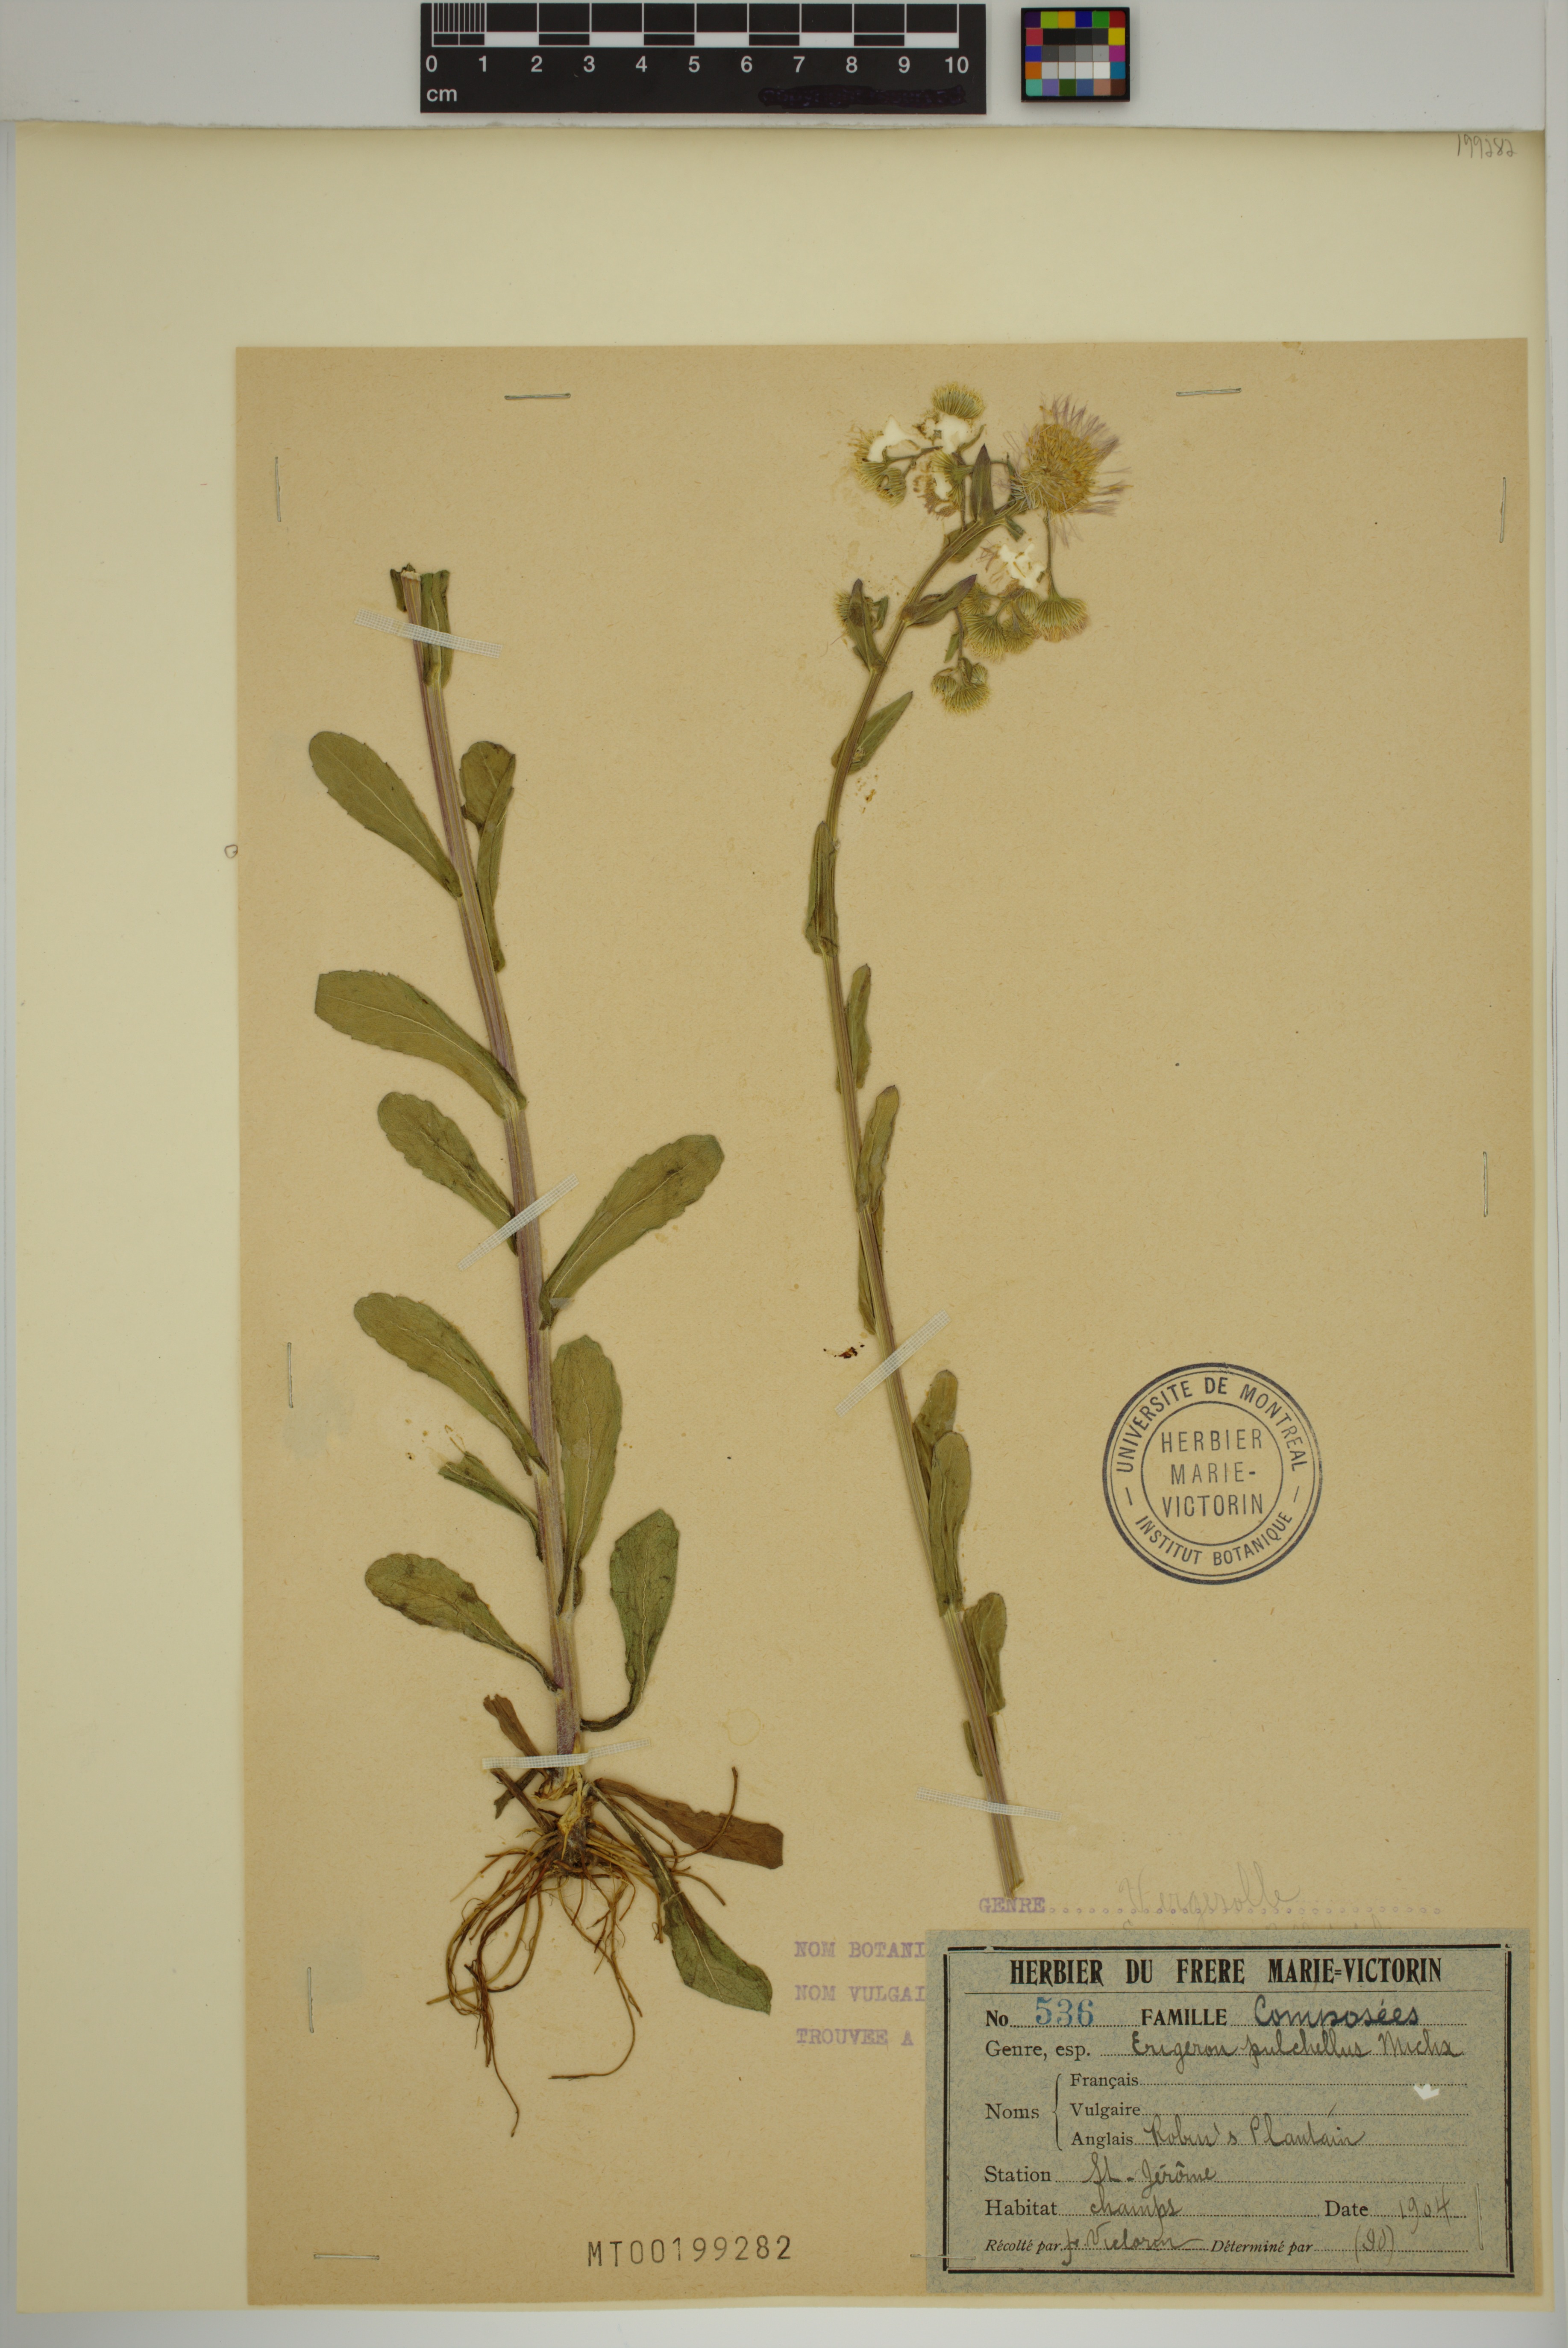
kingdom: Plantae
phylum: Tracheophyta
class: Magnoliopsida
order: Asterales
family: Asteraceae
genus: Erigeron
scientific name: Erigeron pulchellus
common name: Hairy fleabane
